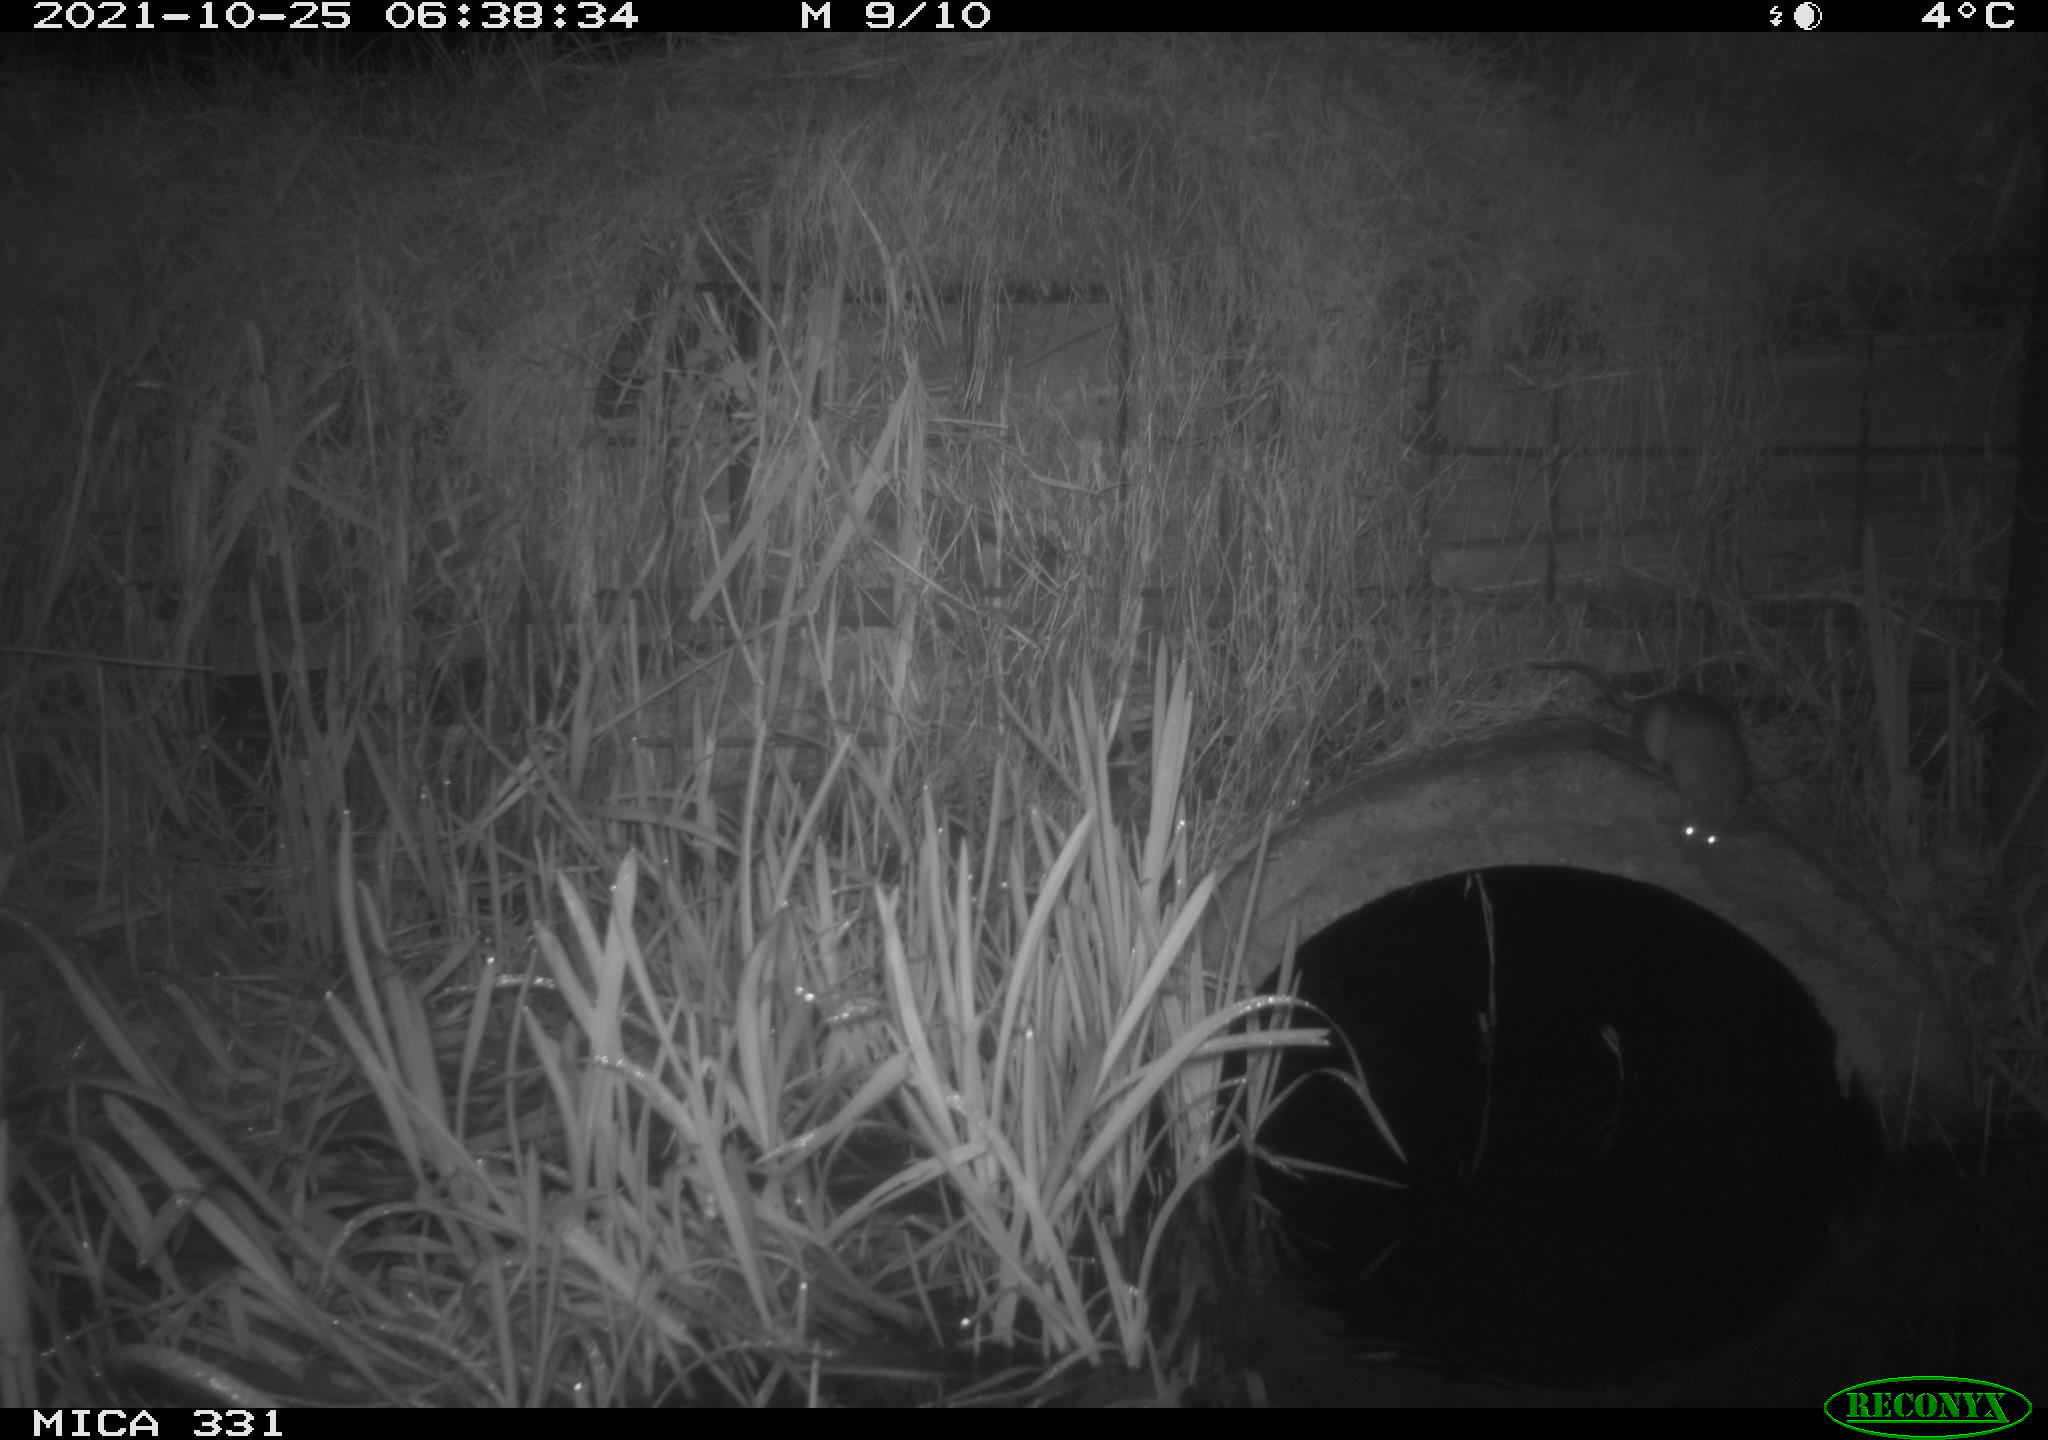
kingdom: Animalia
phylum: Chordata
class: Mammalia
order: Rodentia
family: Muridae
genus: Rattus
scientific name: Rattus norvegicus
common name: Brown rat
